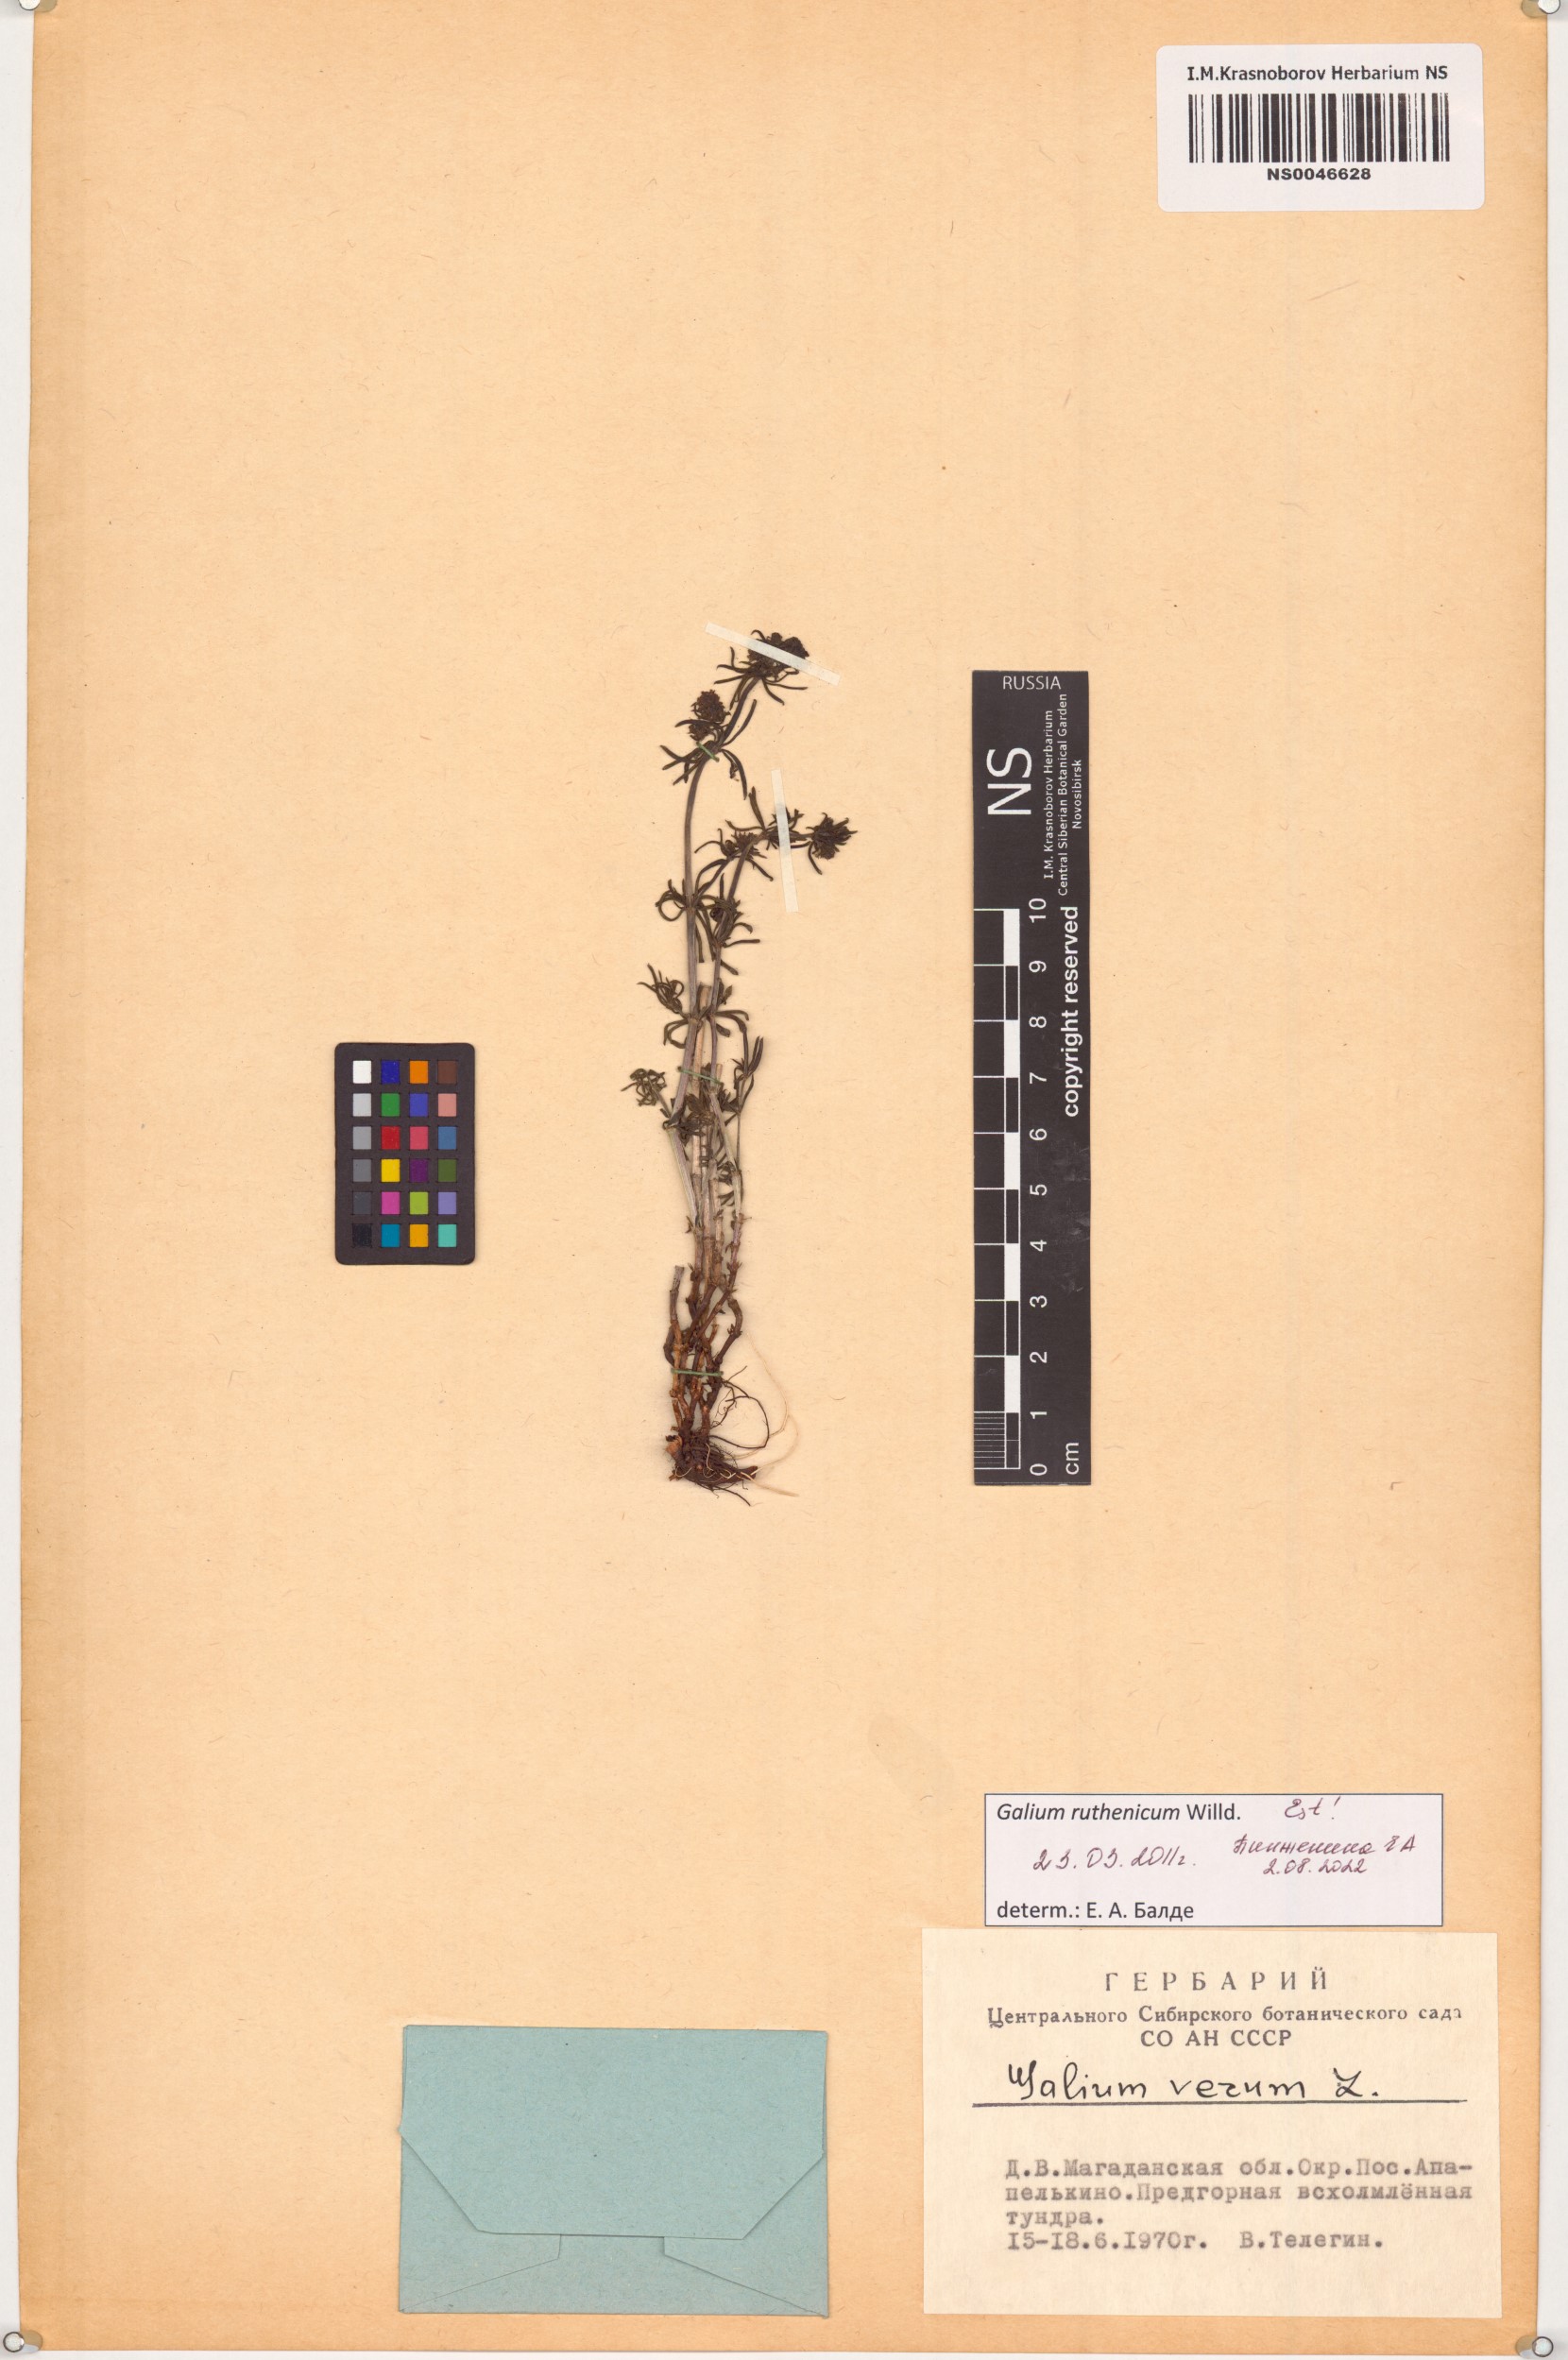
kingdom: Plantae
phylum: Tracheophyta
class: Magnoliopsida
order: Gentianales
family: Rubiaceae
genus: Galium
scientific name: Galium verum
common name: Lady's bedstraw
